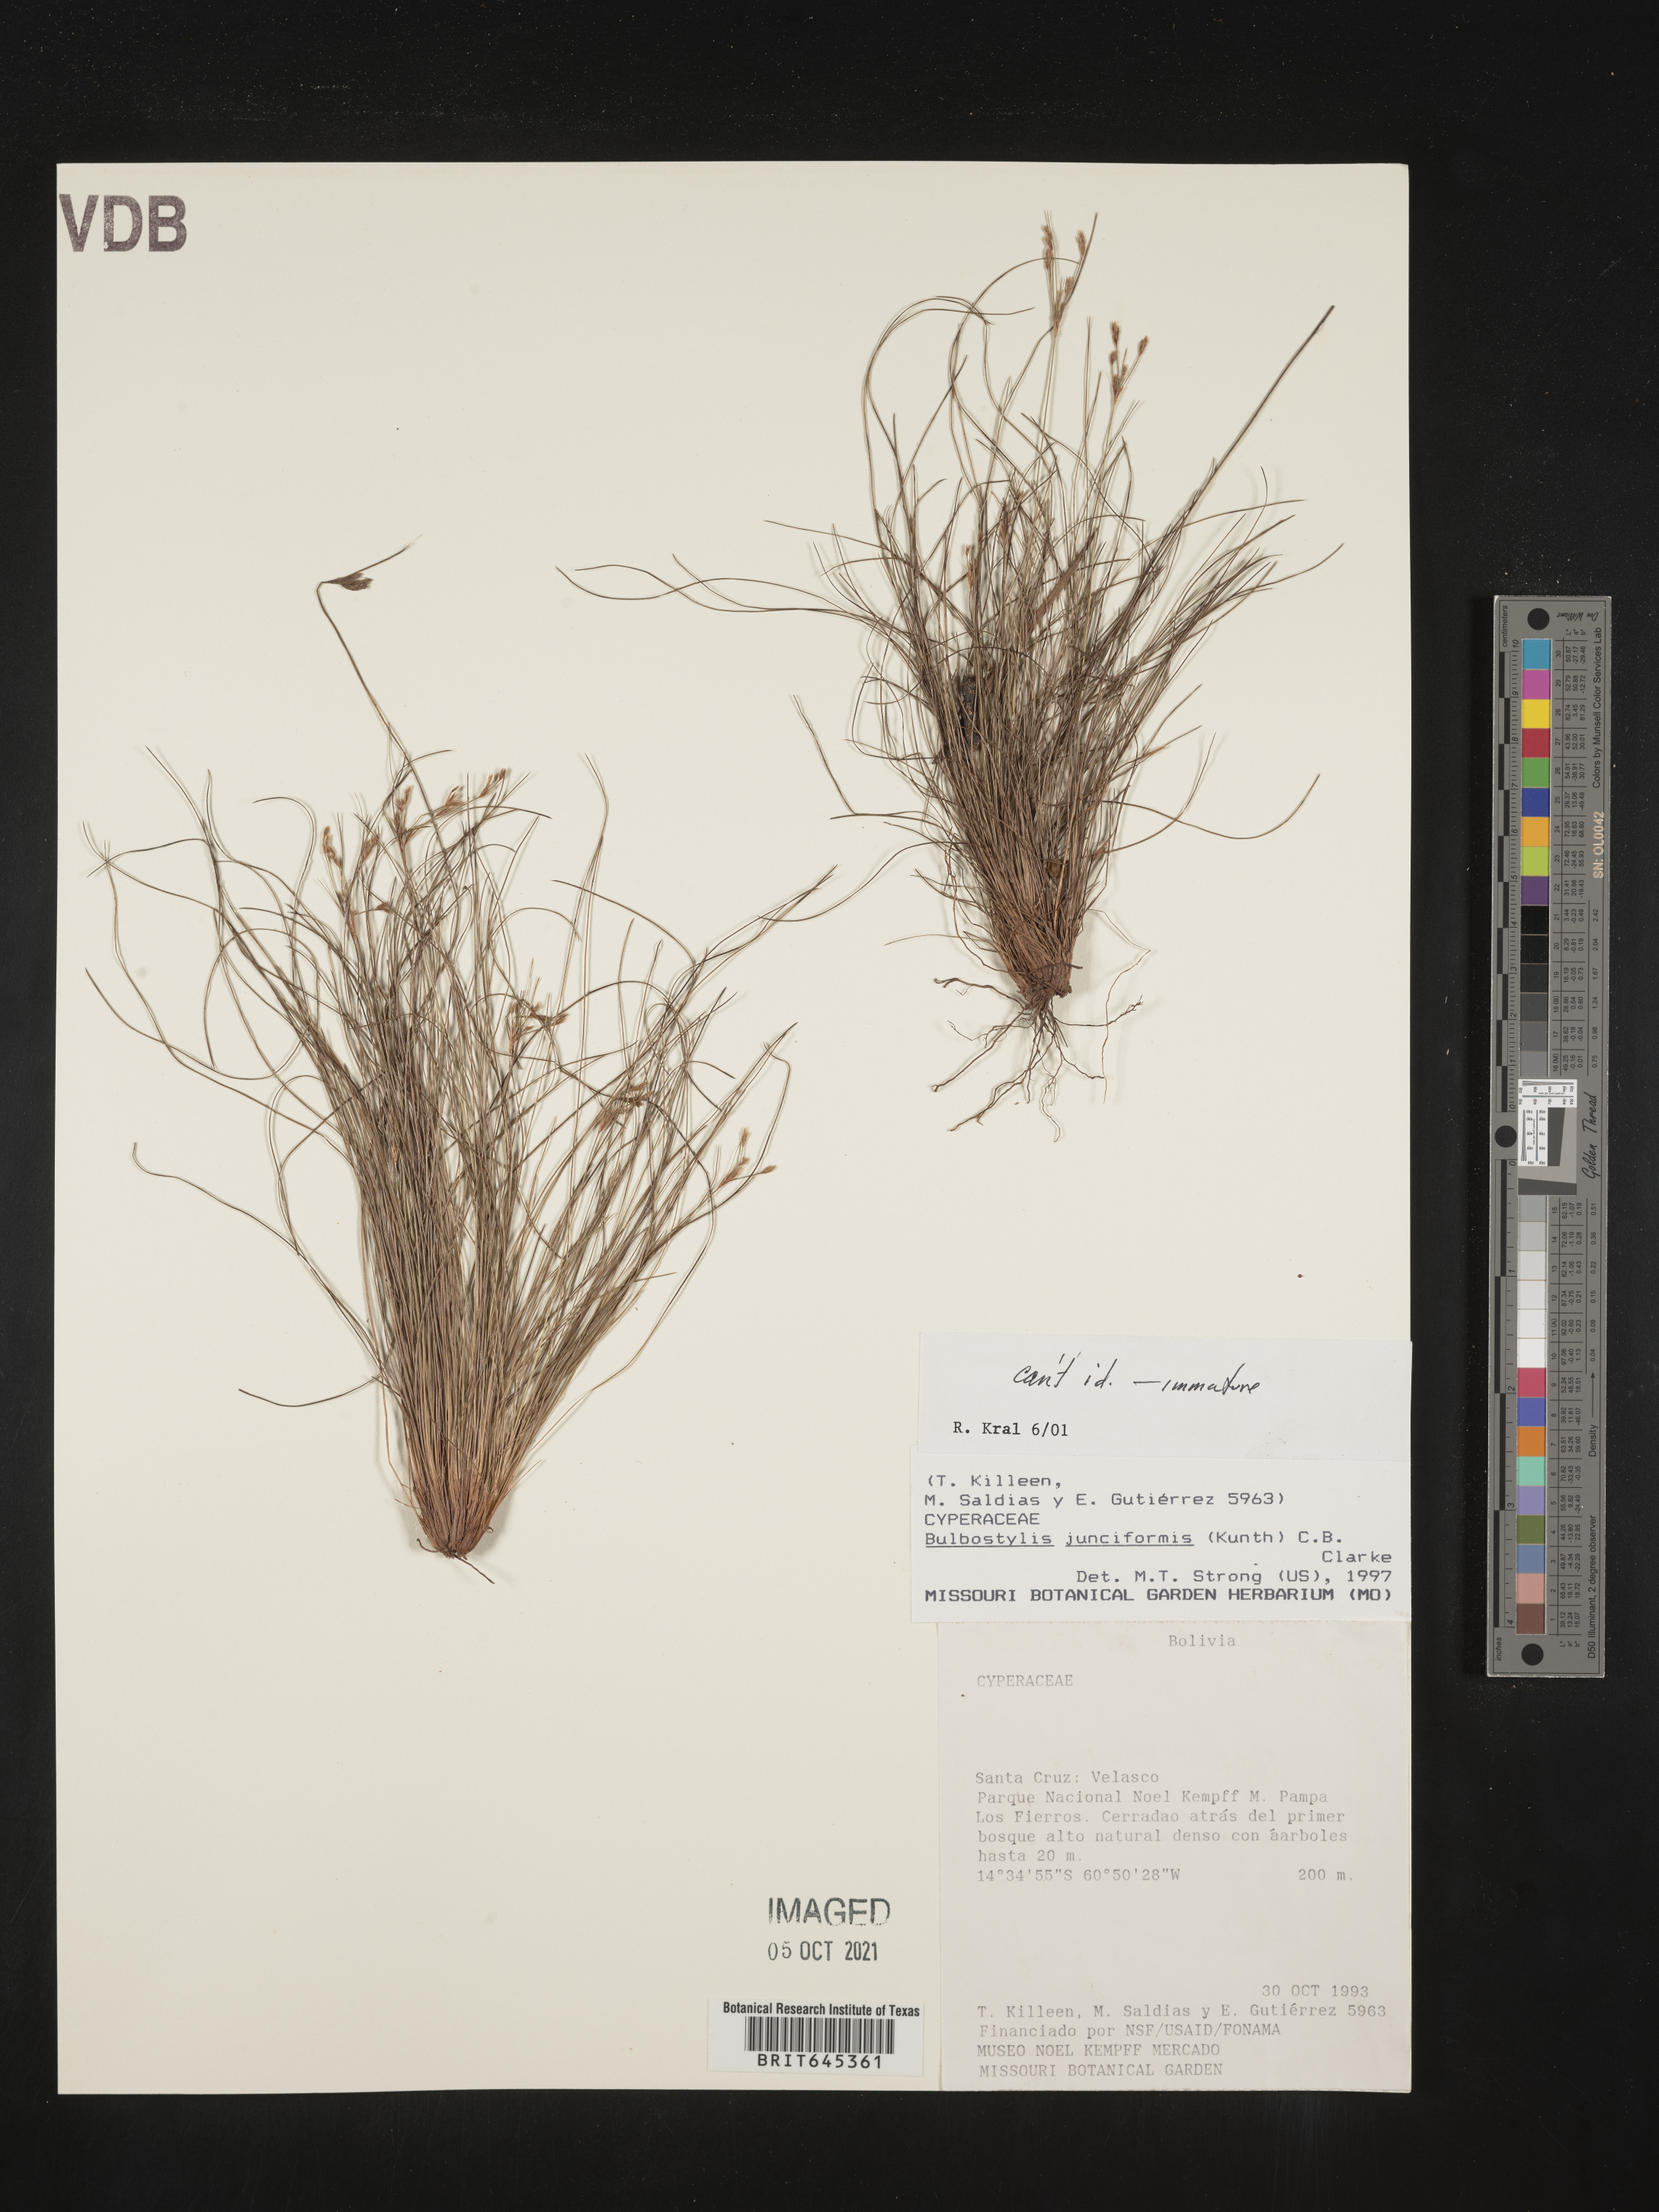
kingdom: Plantae
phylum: Tracheophyta
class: Liliopsida
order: Poales
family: Cyperaceae
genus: Bulbostylis
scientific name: Bulbostylis junciformis
